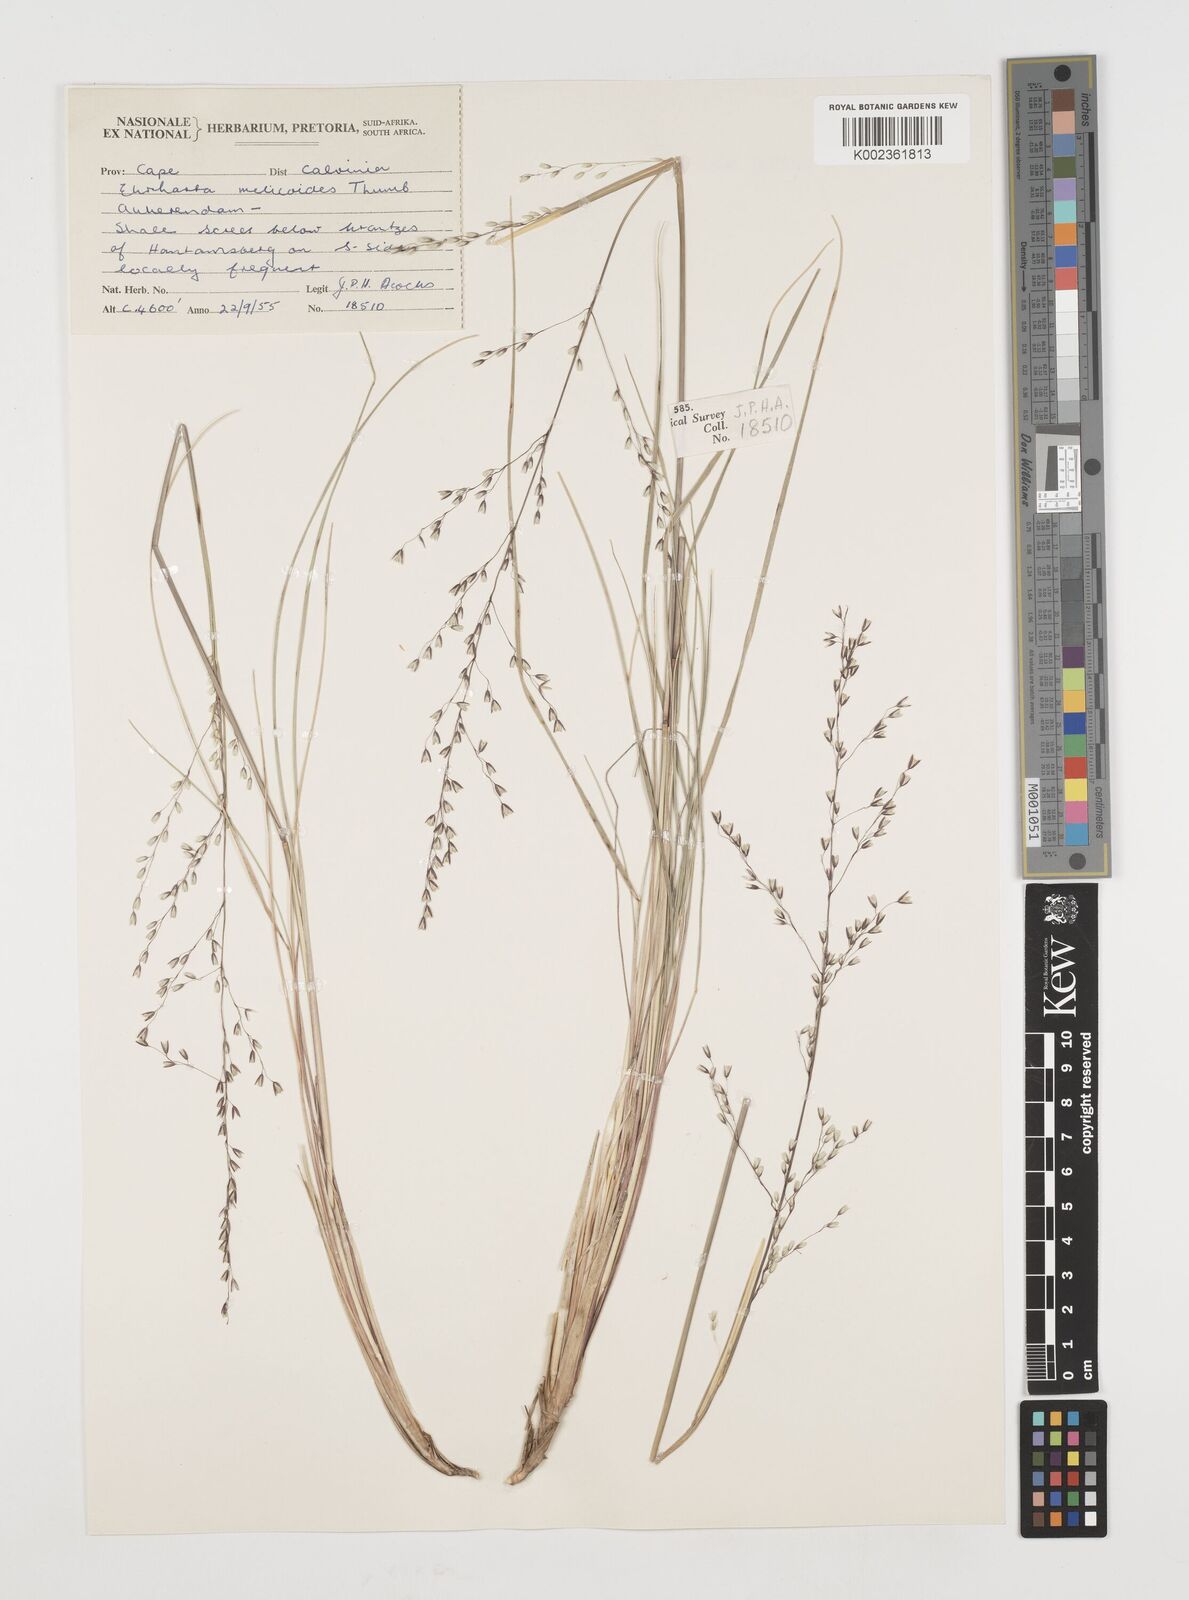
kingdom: Plantae
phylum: Tracheophyta
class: Liliopsida
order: Poales
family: Poaceae
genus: Ehrharta
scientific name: Ehrharta melicoides
